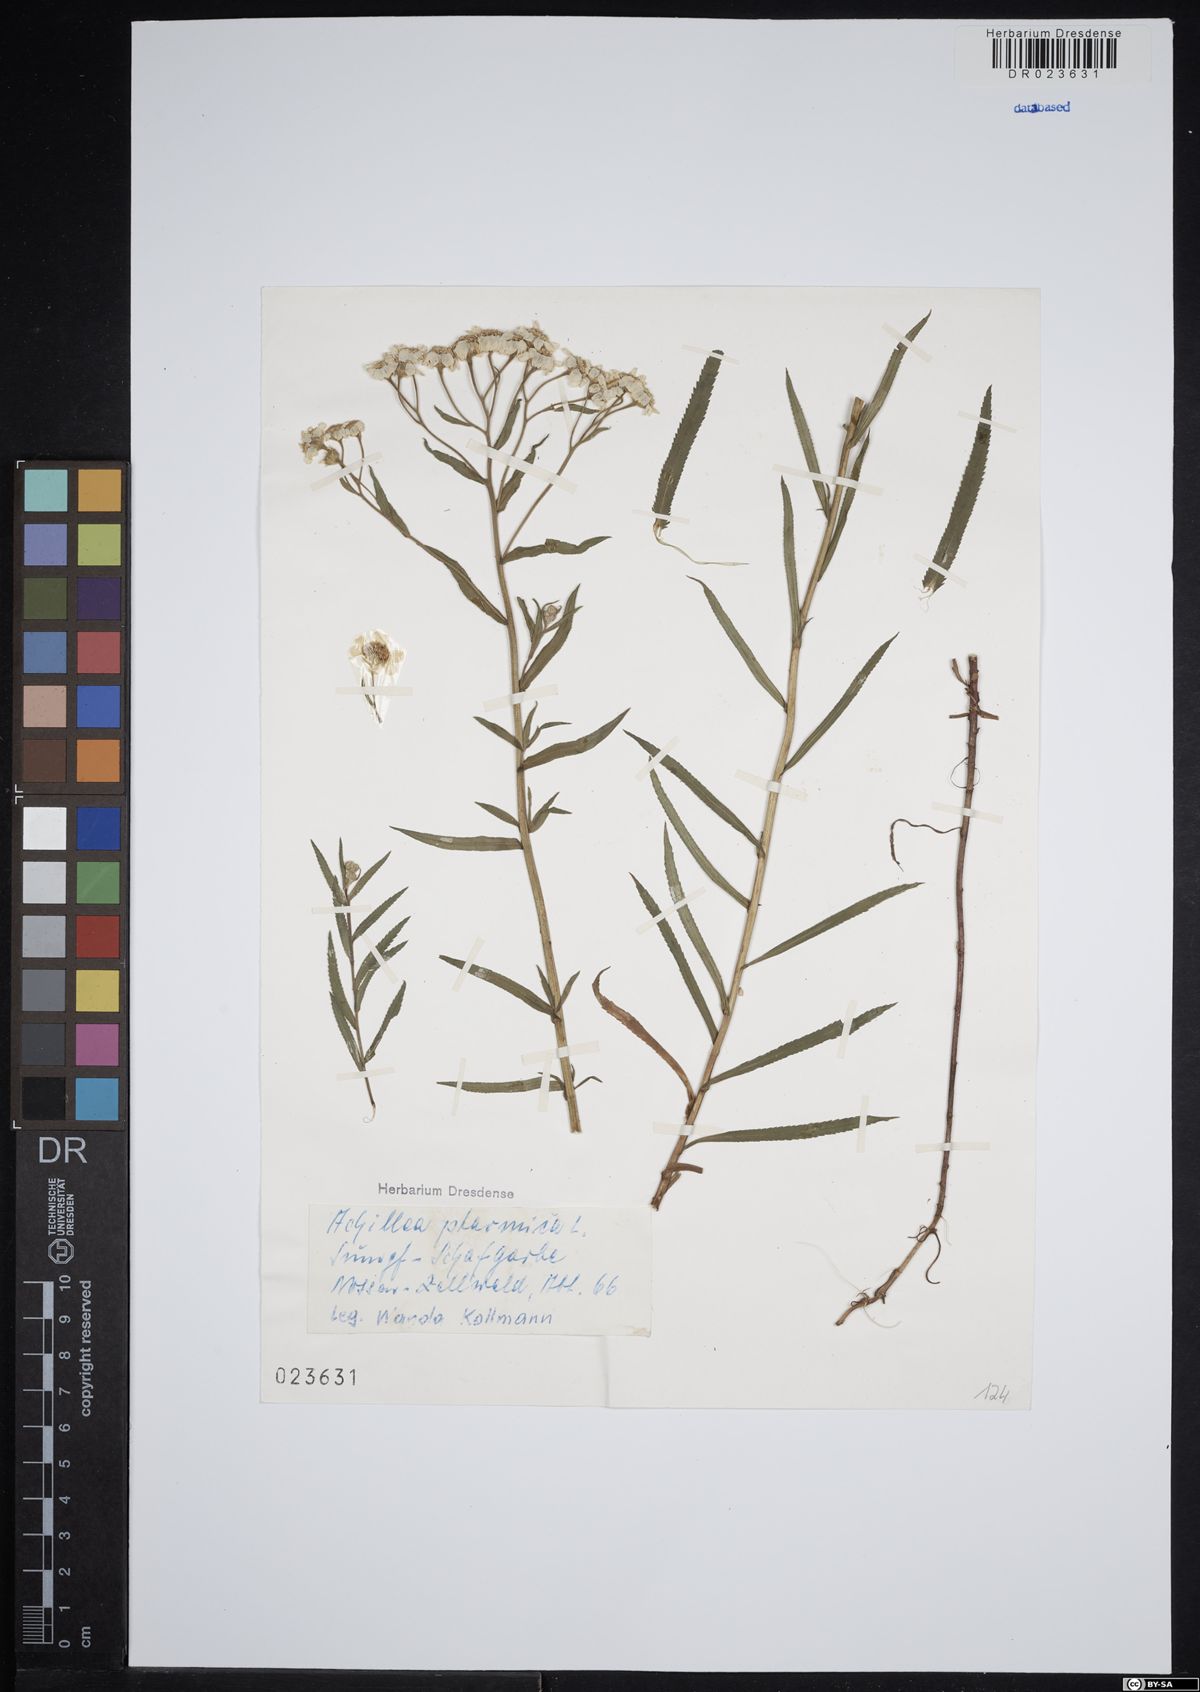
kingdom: Plantae
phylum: Tracheophyta
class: Magnoliopsida
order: Asterales
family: Asteraceae
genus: Achillea
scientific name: Achillea ptarmica
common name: Sneezeweed
